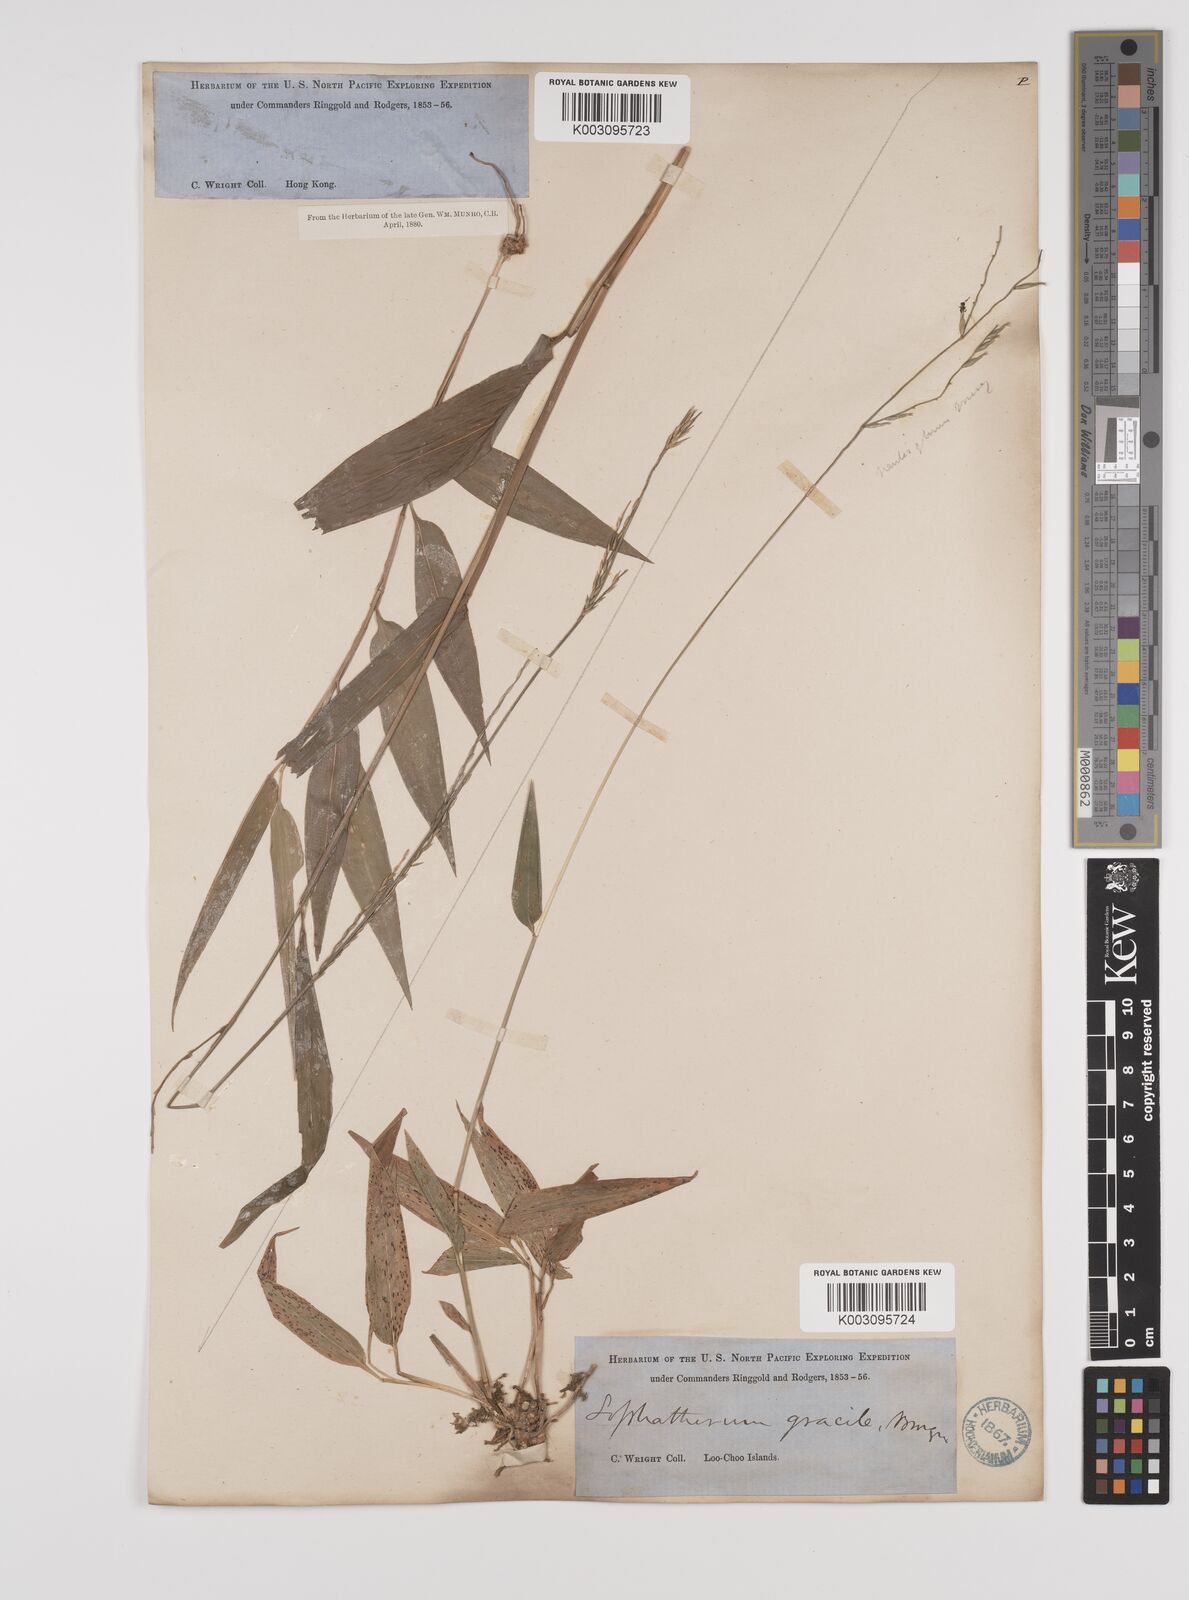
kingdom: Plantae
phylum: Tracheophyta
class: Liliopsida
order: Poales
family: Poaceae
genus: Lophatherum
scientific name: Lophatherum gracile
